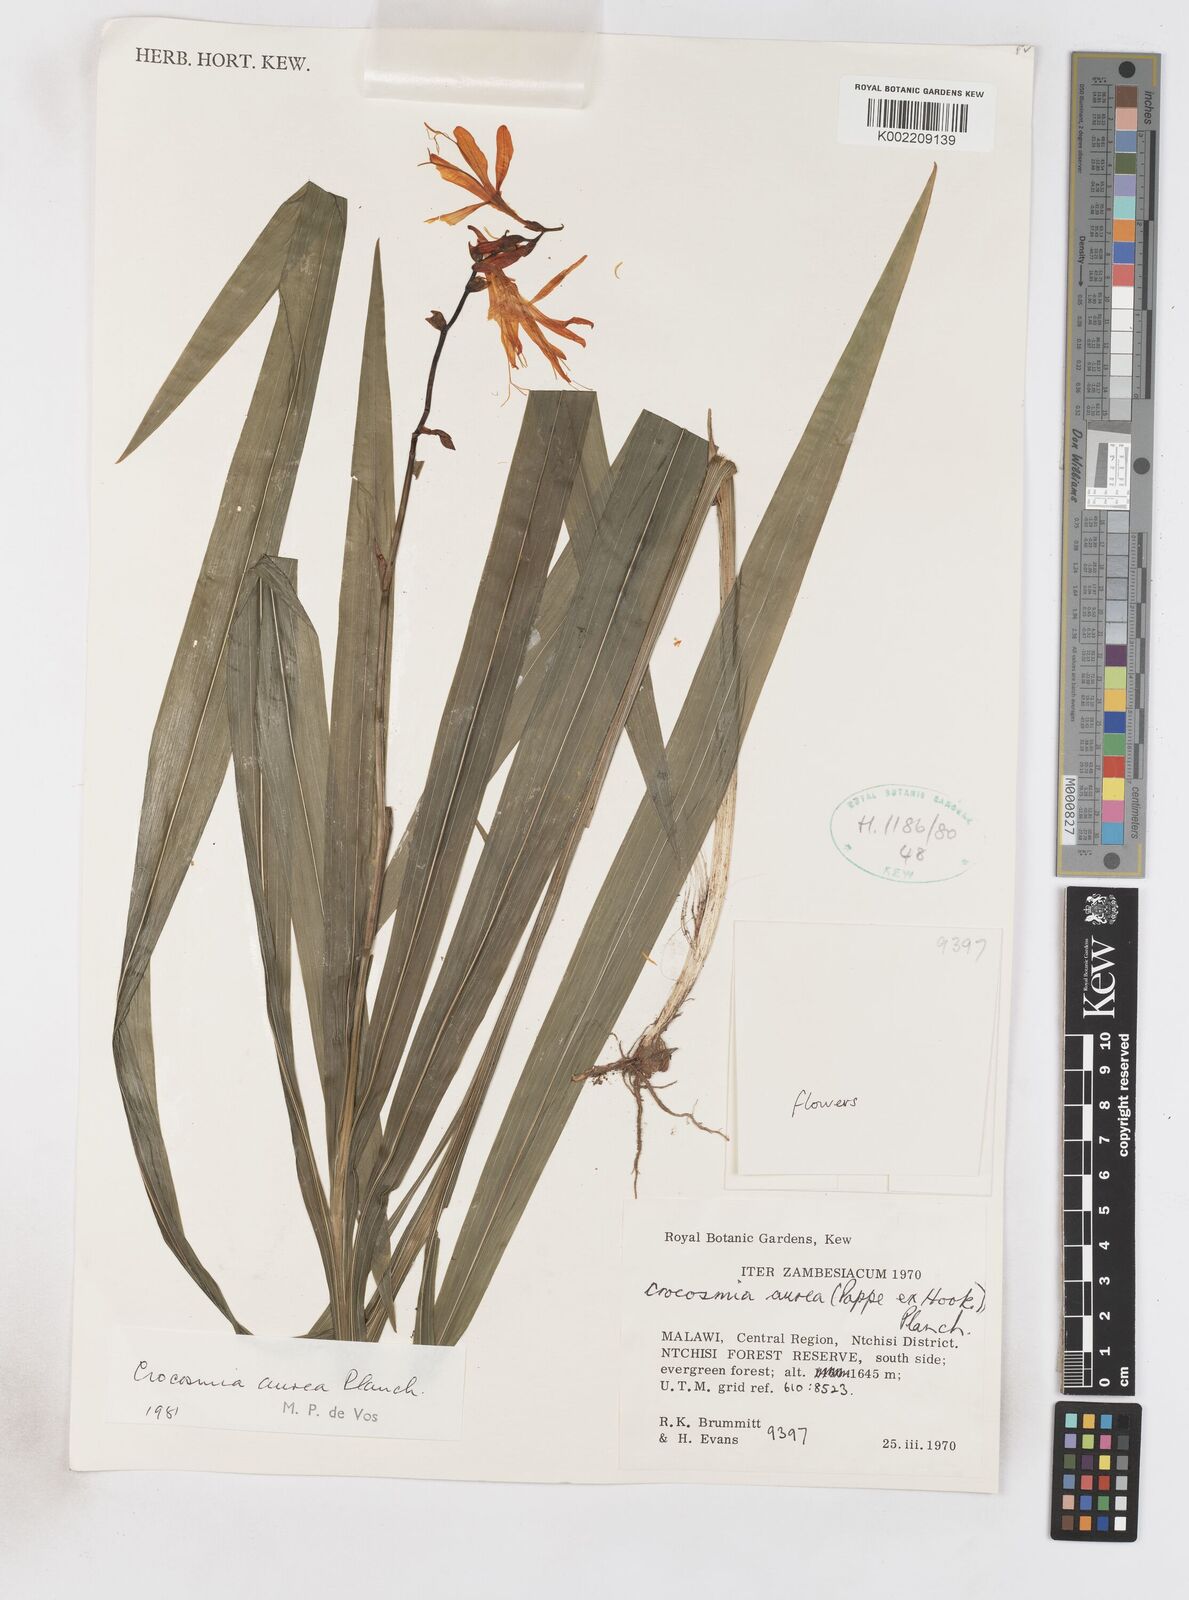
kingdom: Plantae
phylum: Tracheophyta
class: Liliopsida
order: Asparagales
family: Iridaceae
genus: Crocosmia
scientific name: Crocosmia aurea
